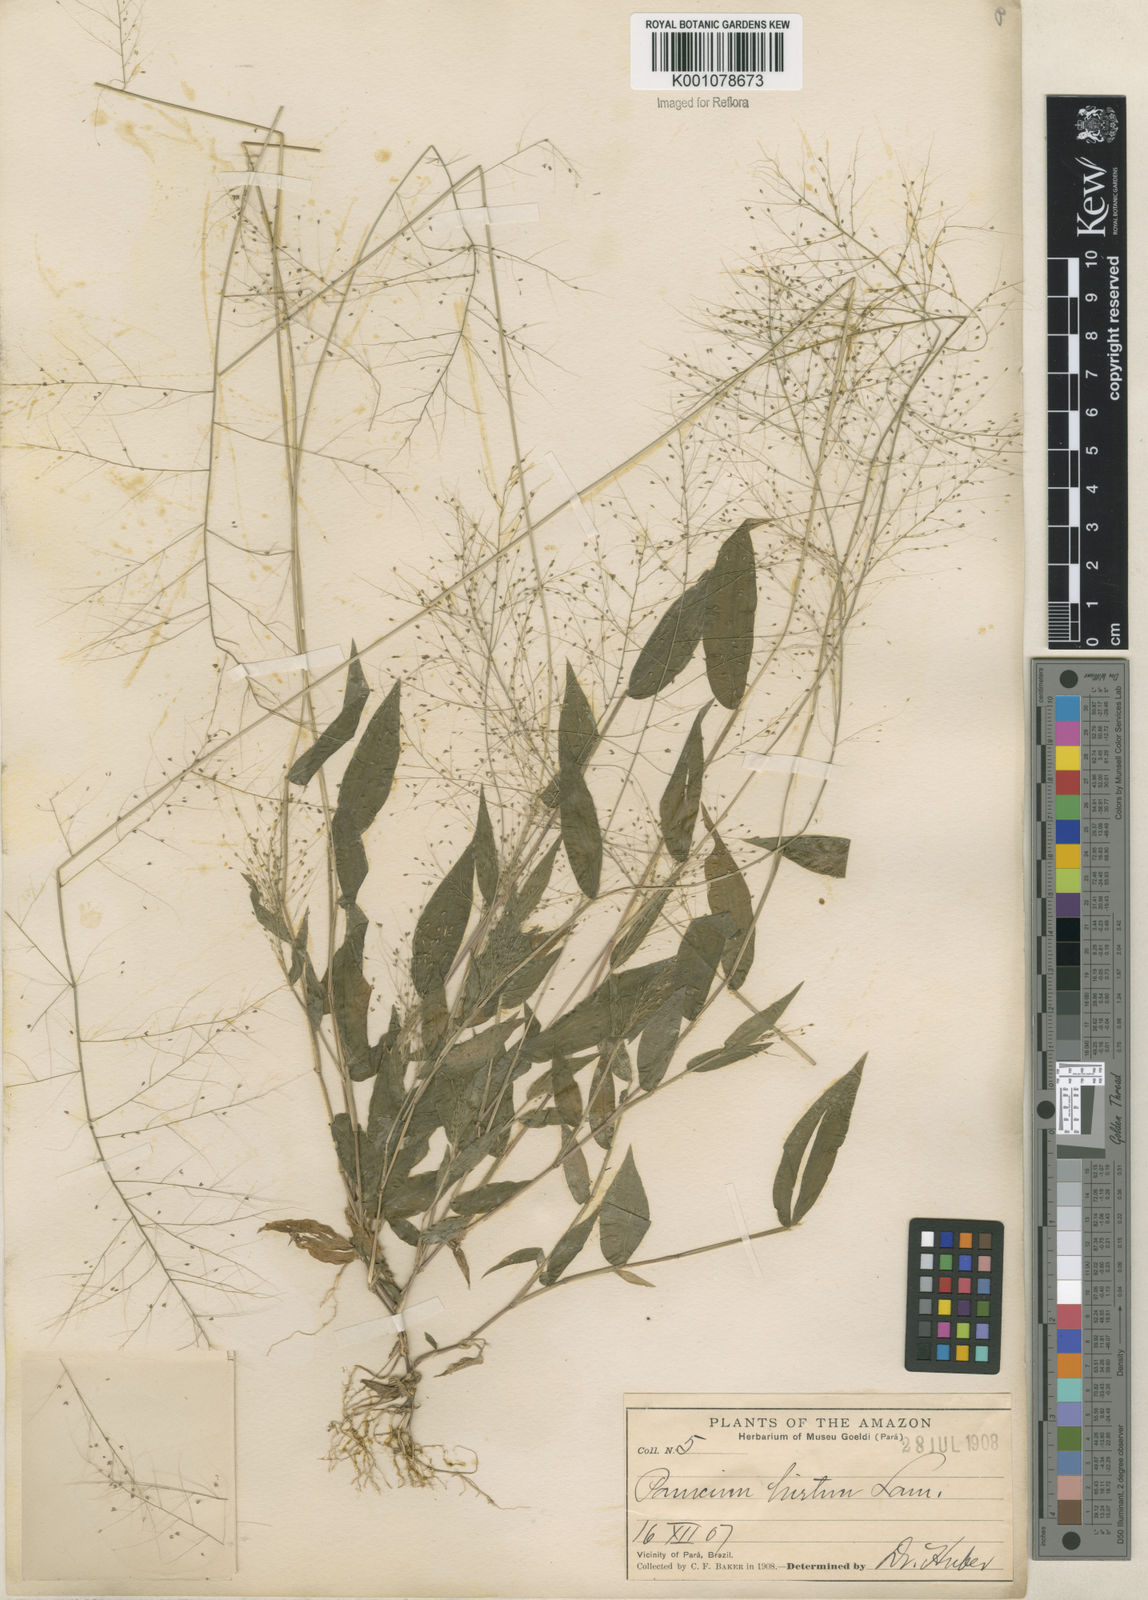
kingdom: Plantae
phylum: Tracheophyta
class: Liliopsida
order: Poales
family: Poaceae
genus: Panicum
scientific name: Panicum trichoides
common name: Tickle grass
